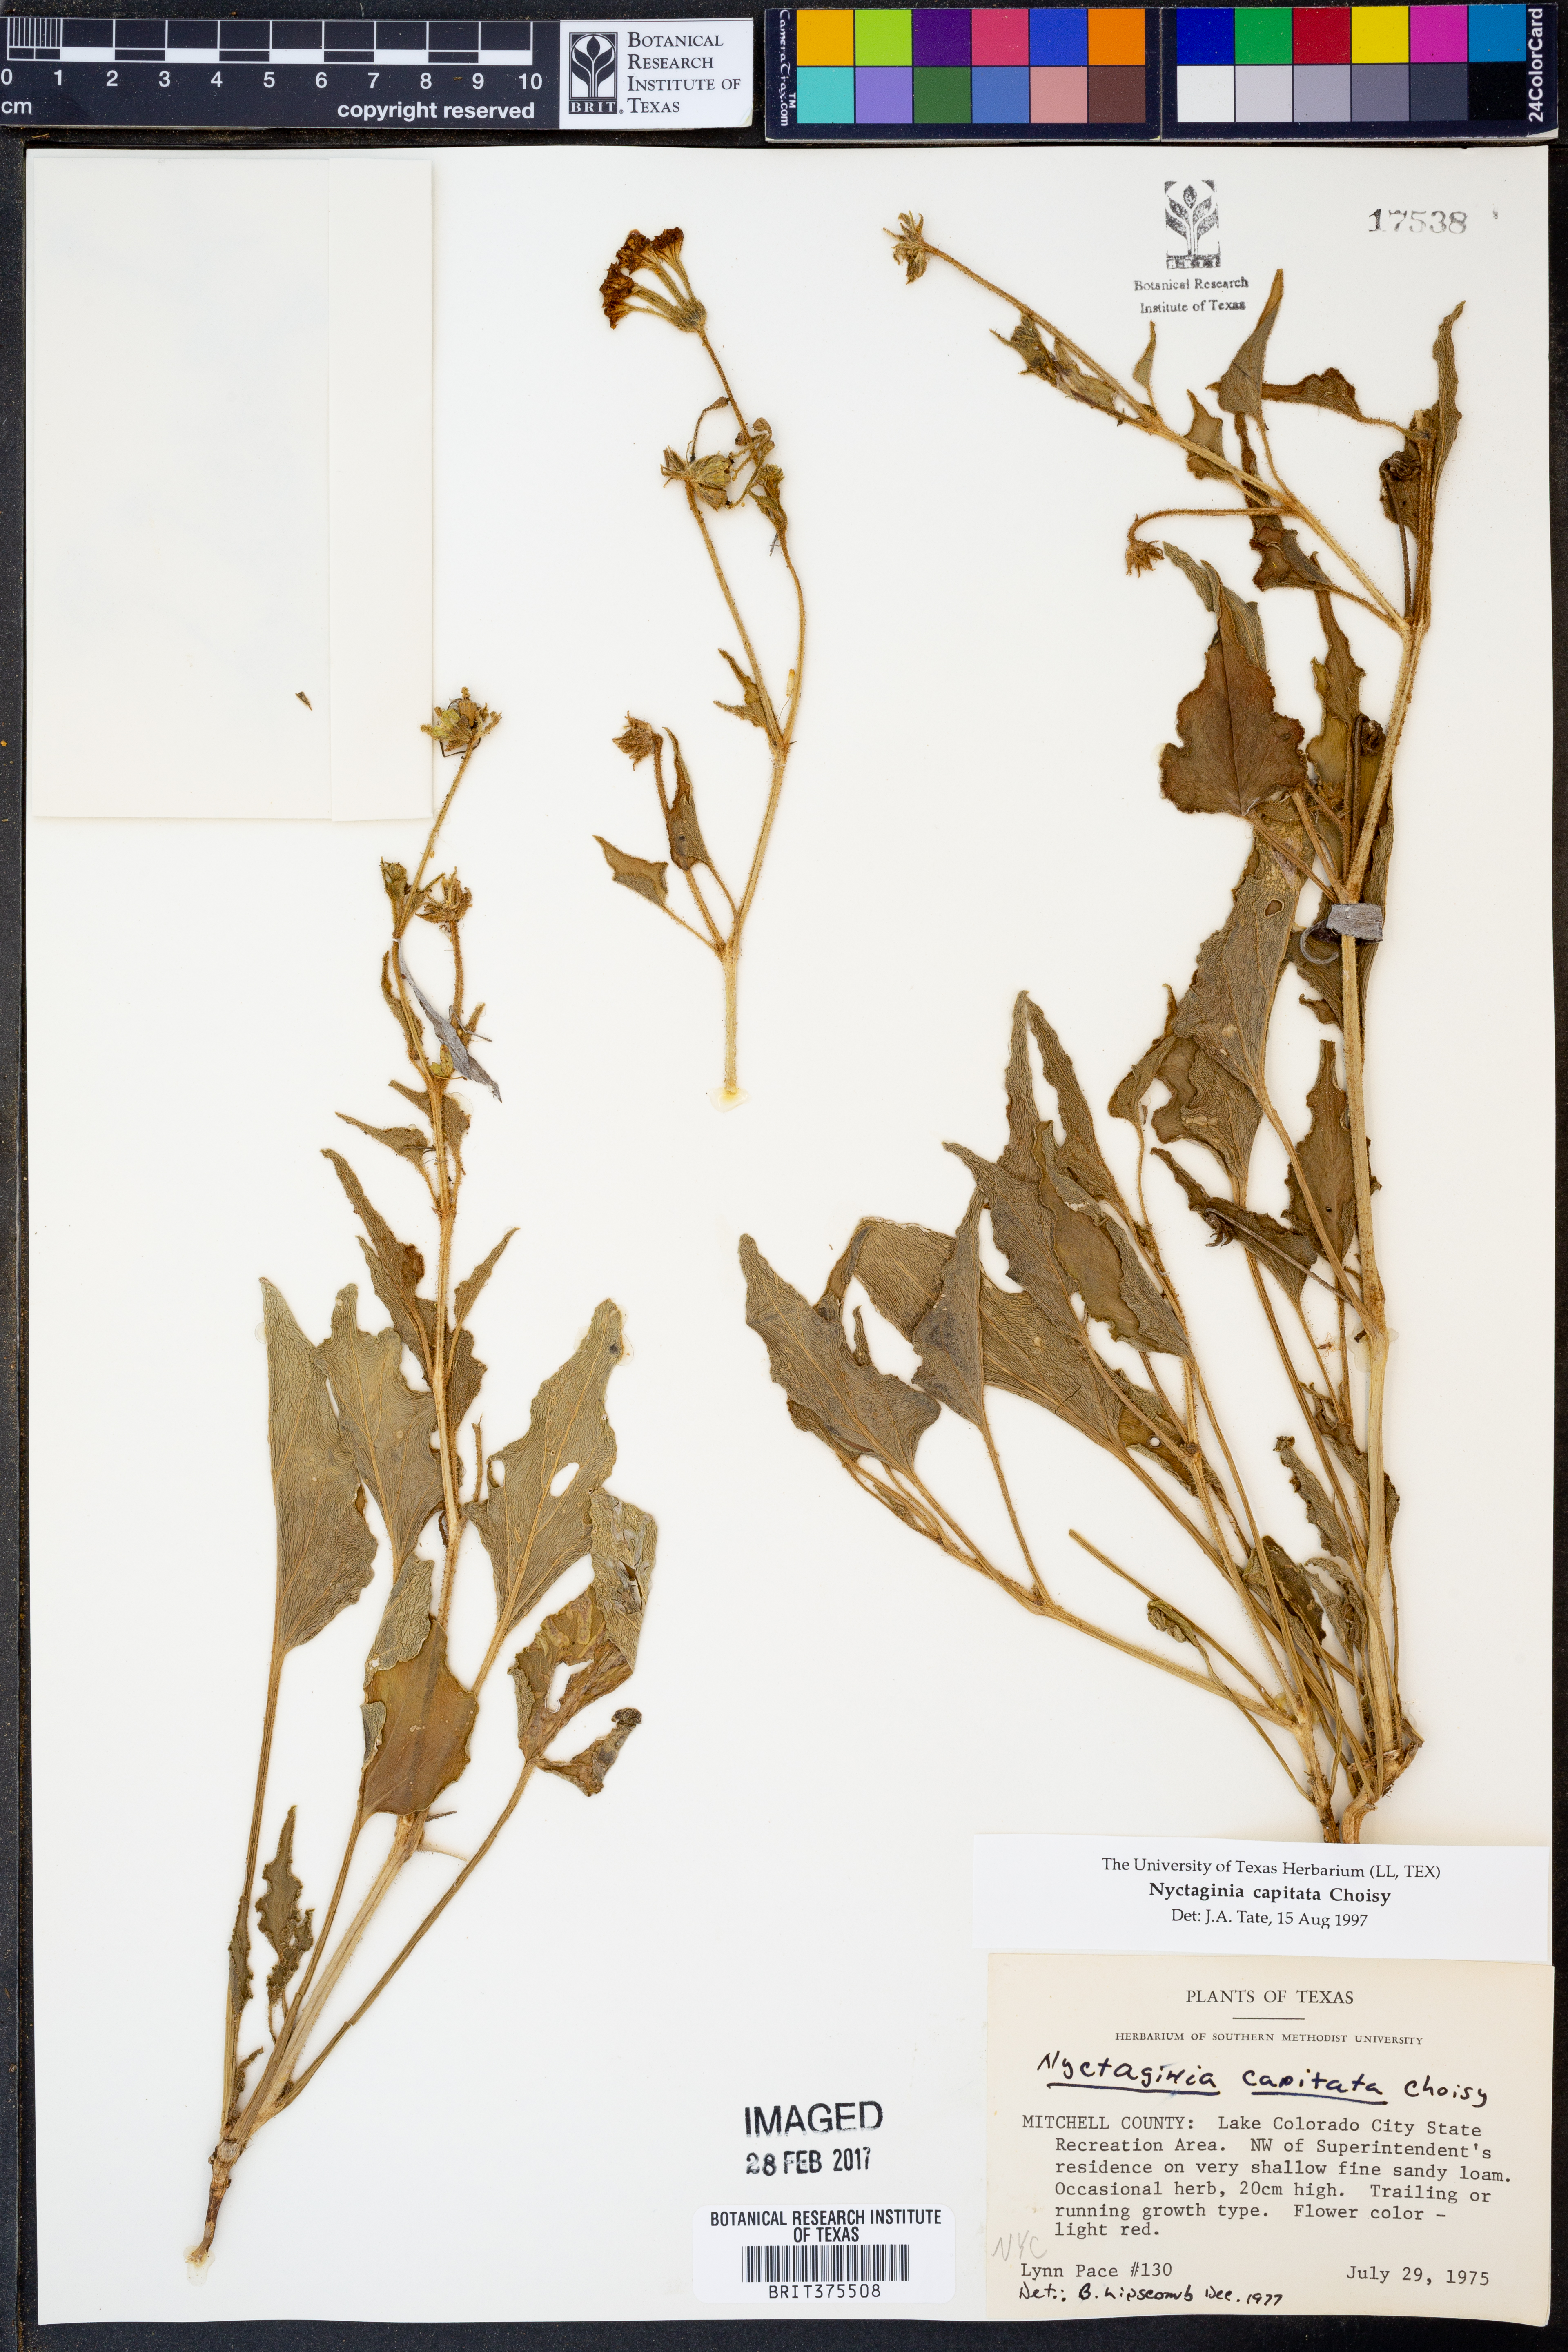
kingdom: Plantae
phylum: Tracheophyta
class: Magnoliopsida
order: Caryophyllales
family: Nyctaginaceae
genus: Nyctaginia
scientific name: Nyctaginia capitata
